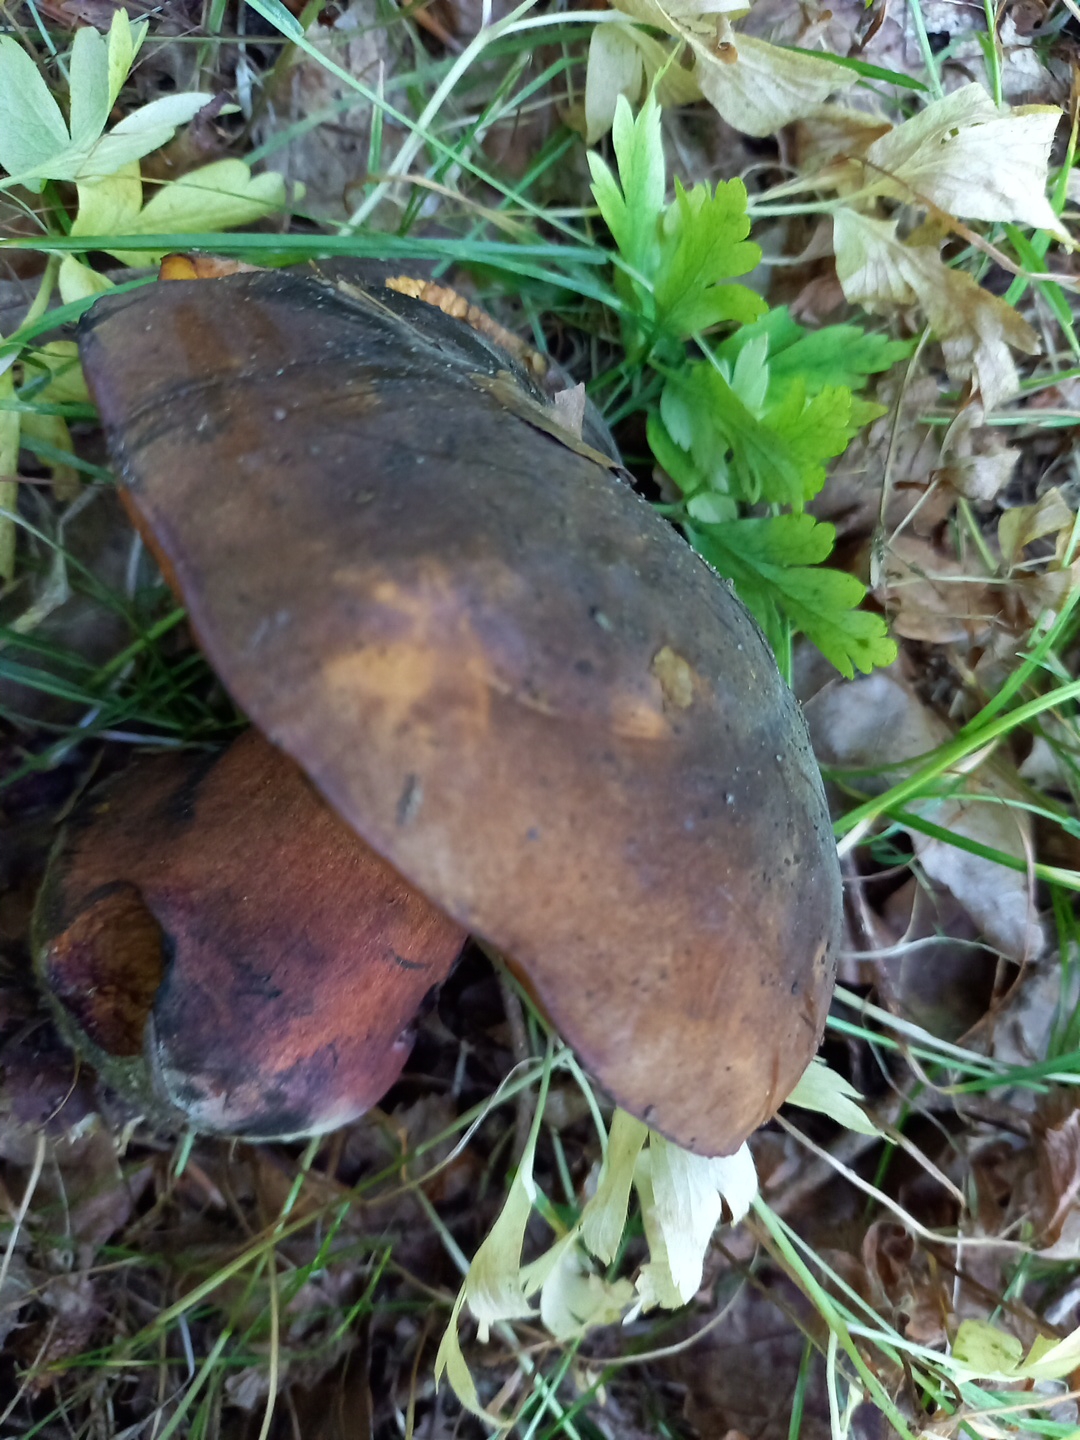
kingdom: Fungi
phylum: Basidiomycota
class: Agaricomycetes
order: Boletales
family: Boletaceae
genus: Neoboletus
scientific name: Neoboletus erythropus
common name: punktstokket indigorørhat
